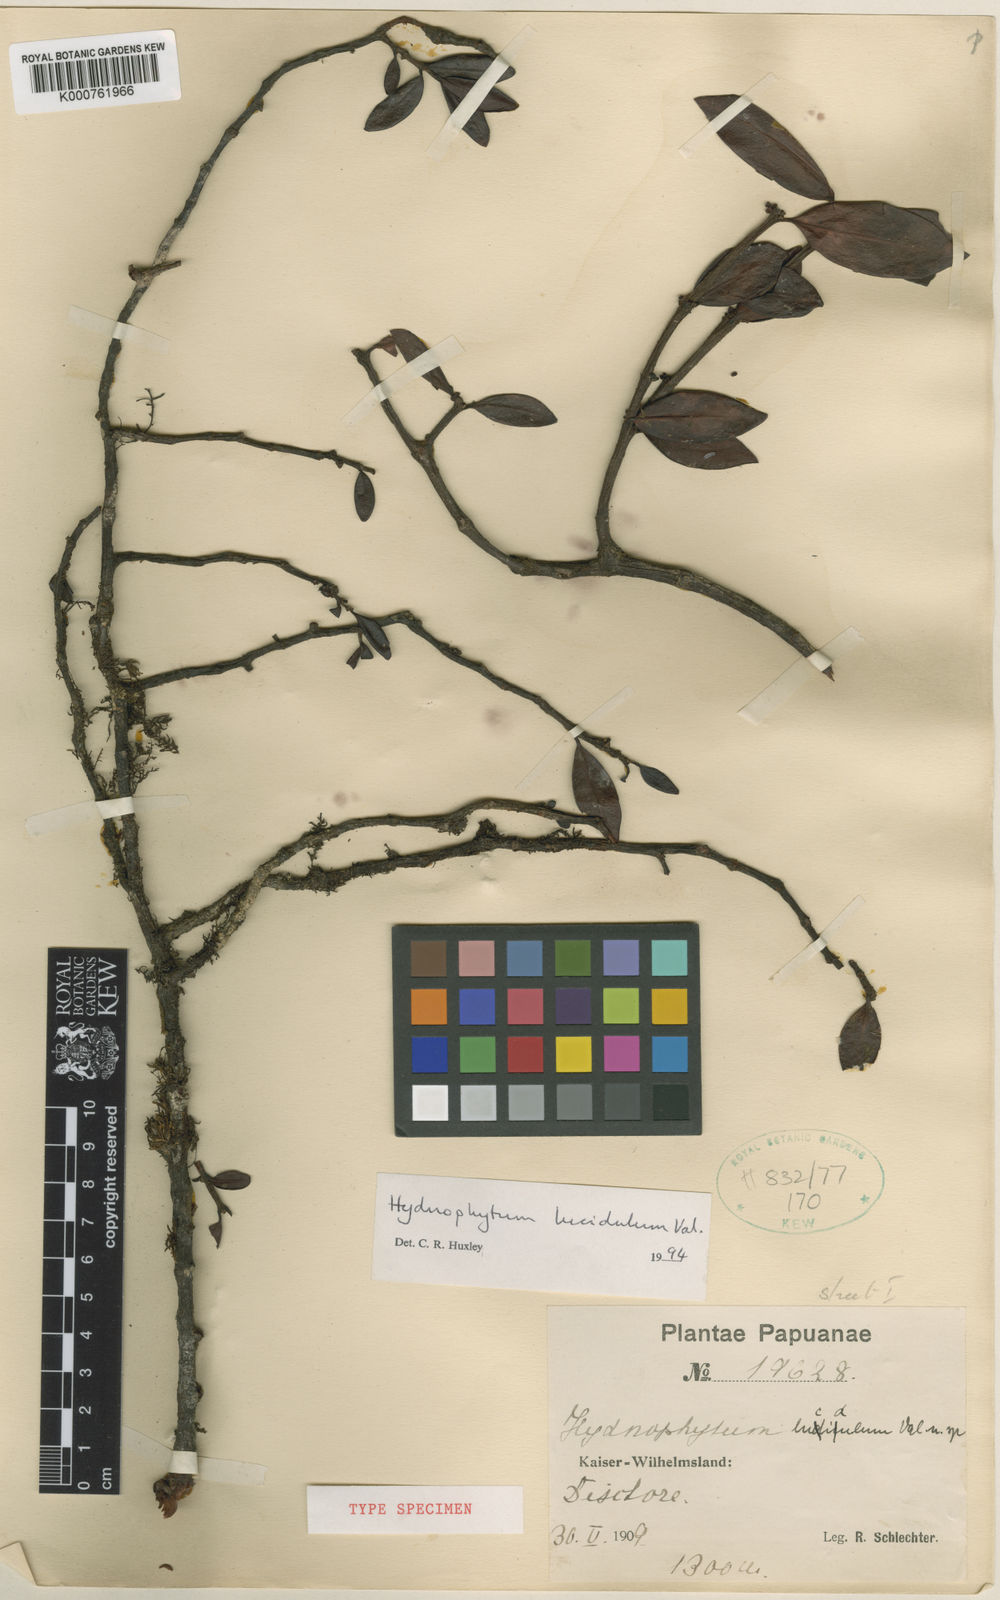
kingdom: Plantae
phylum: Tracheophyta
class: Magnoliopsida
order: Gentianales
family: Rubiaceae
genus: Hydnophytum
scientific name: Hydnophytum lucidulum
